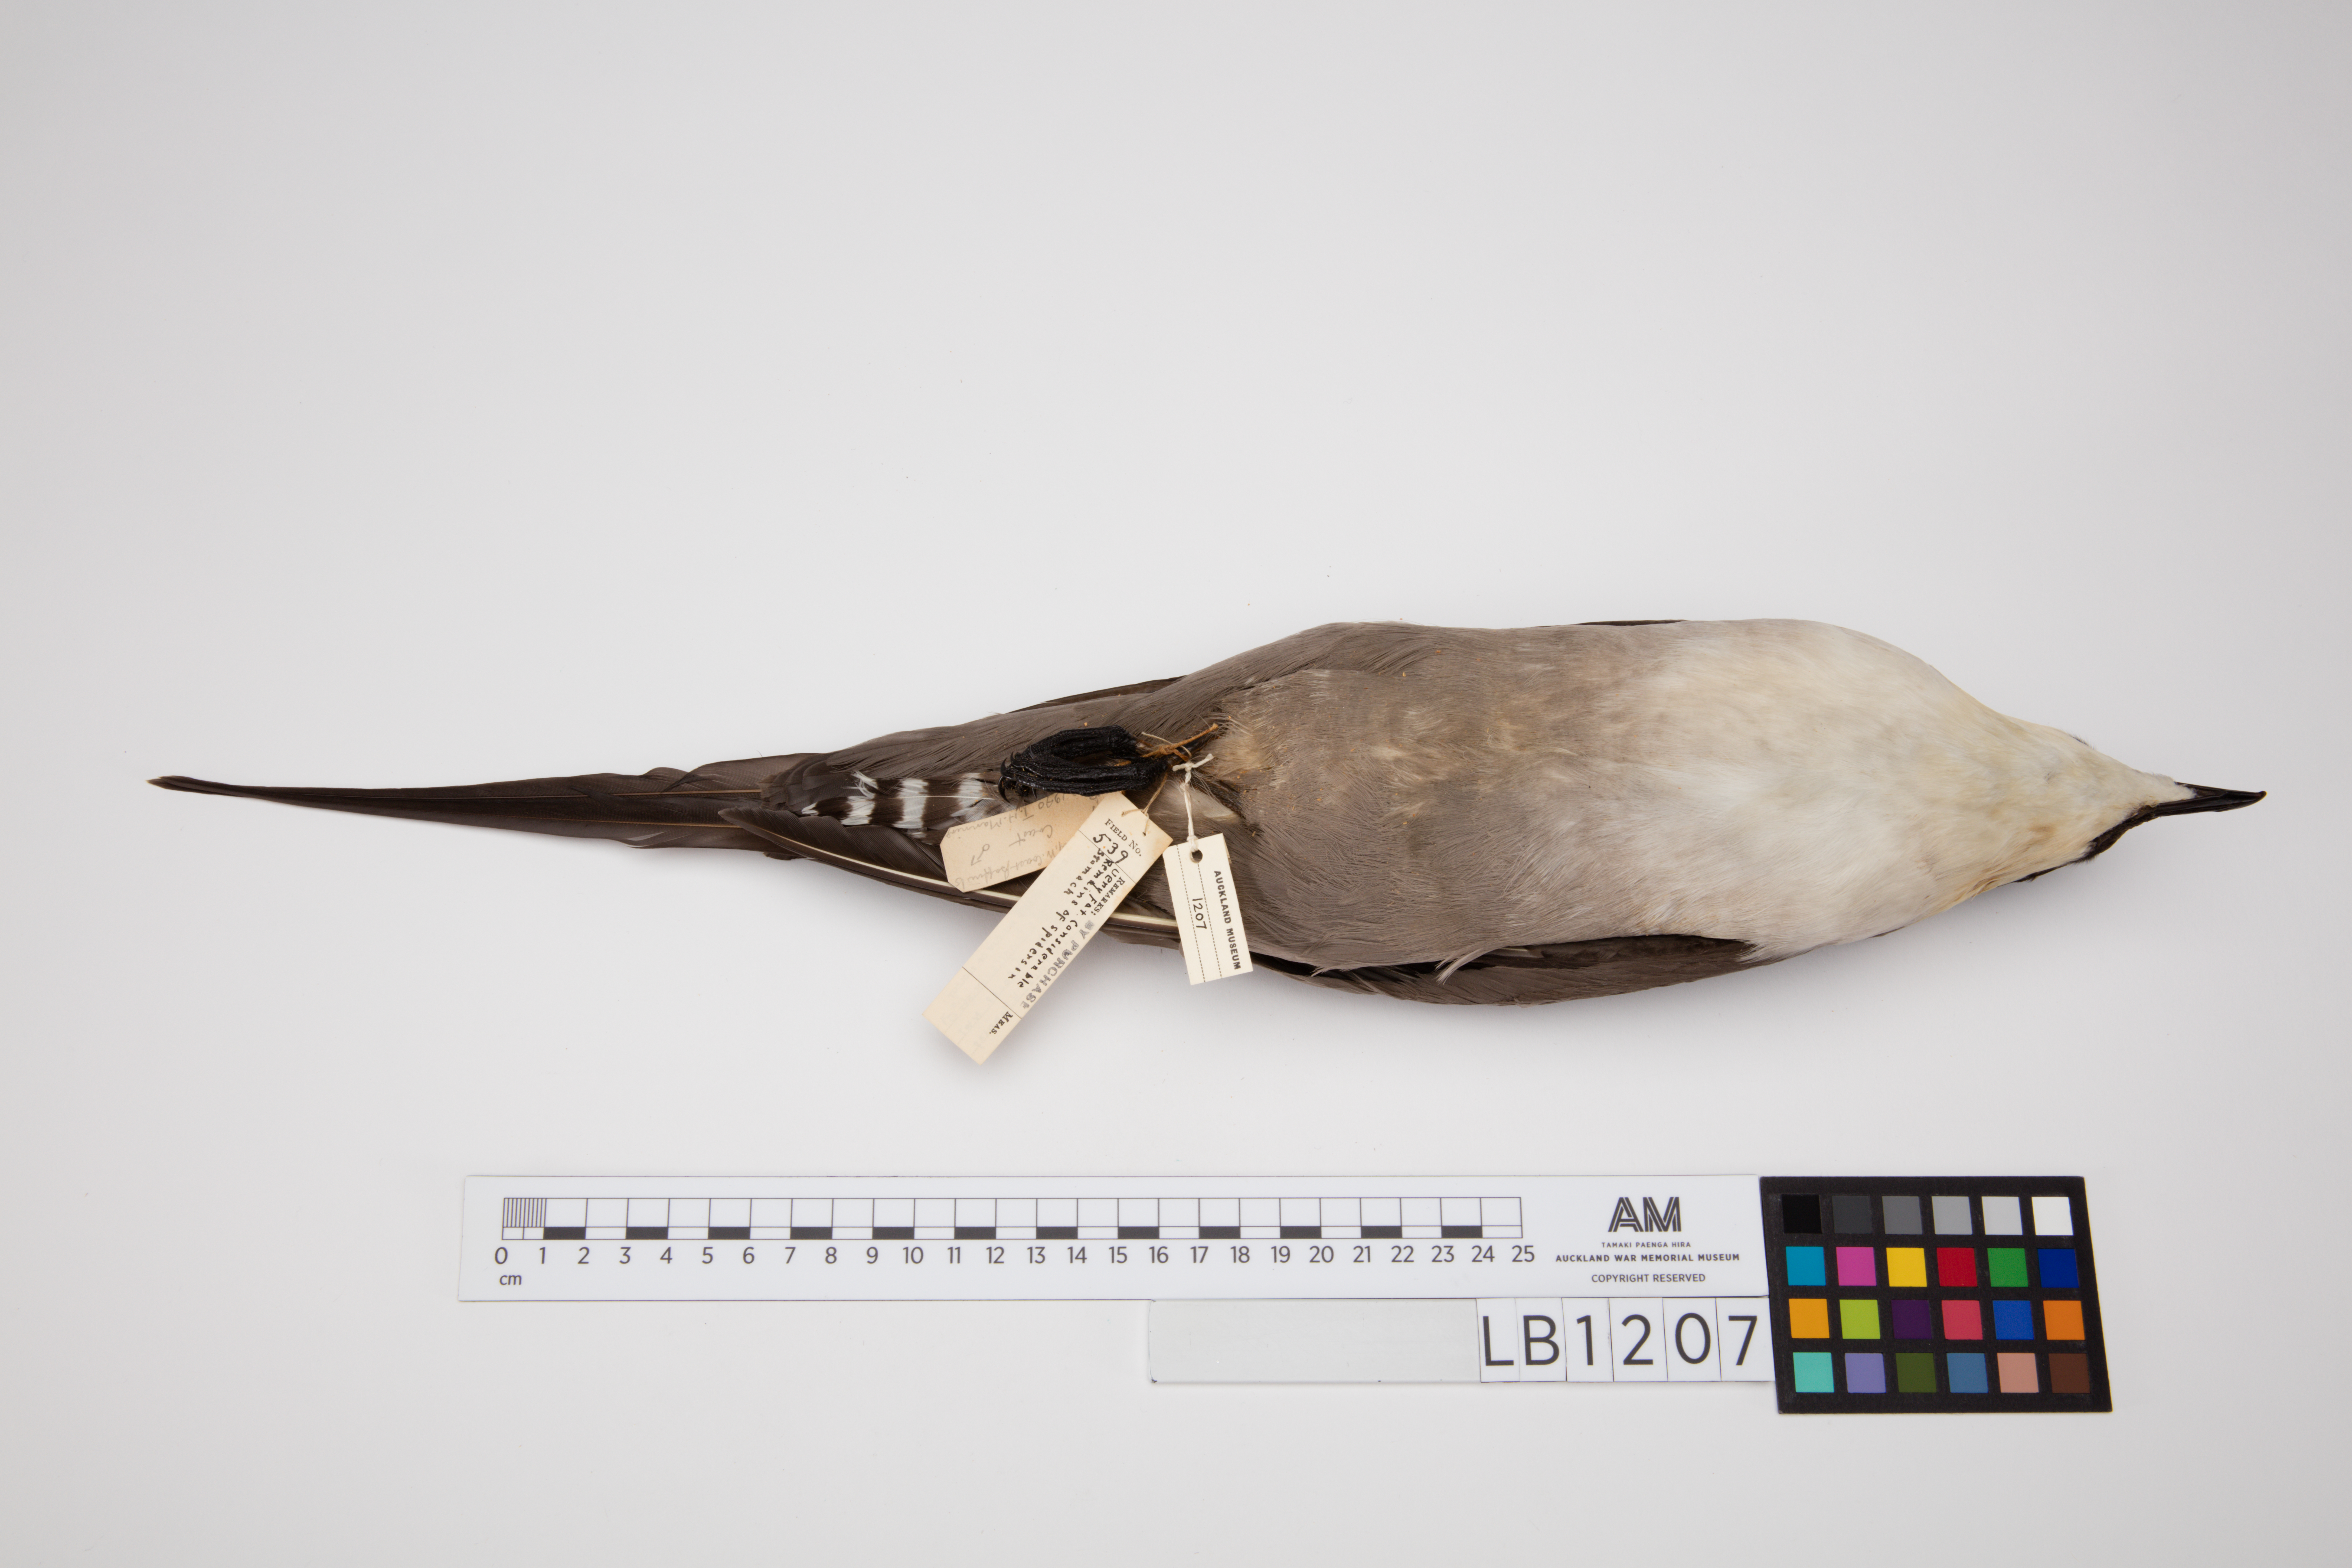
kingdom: Animalia
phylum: Chordata
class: Aves
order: Charadriiformes
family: Stercorariidae
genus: Stercorarius
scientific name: Stercorarius longicaudus
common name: Long-tailed jaeger
